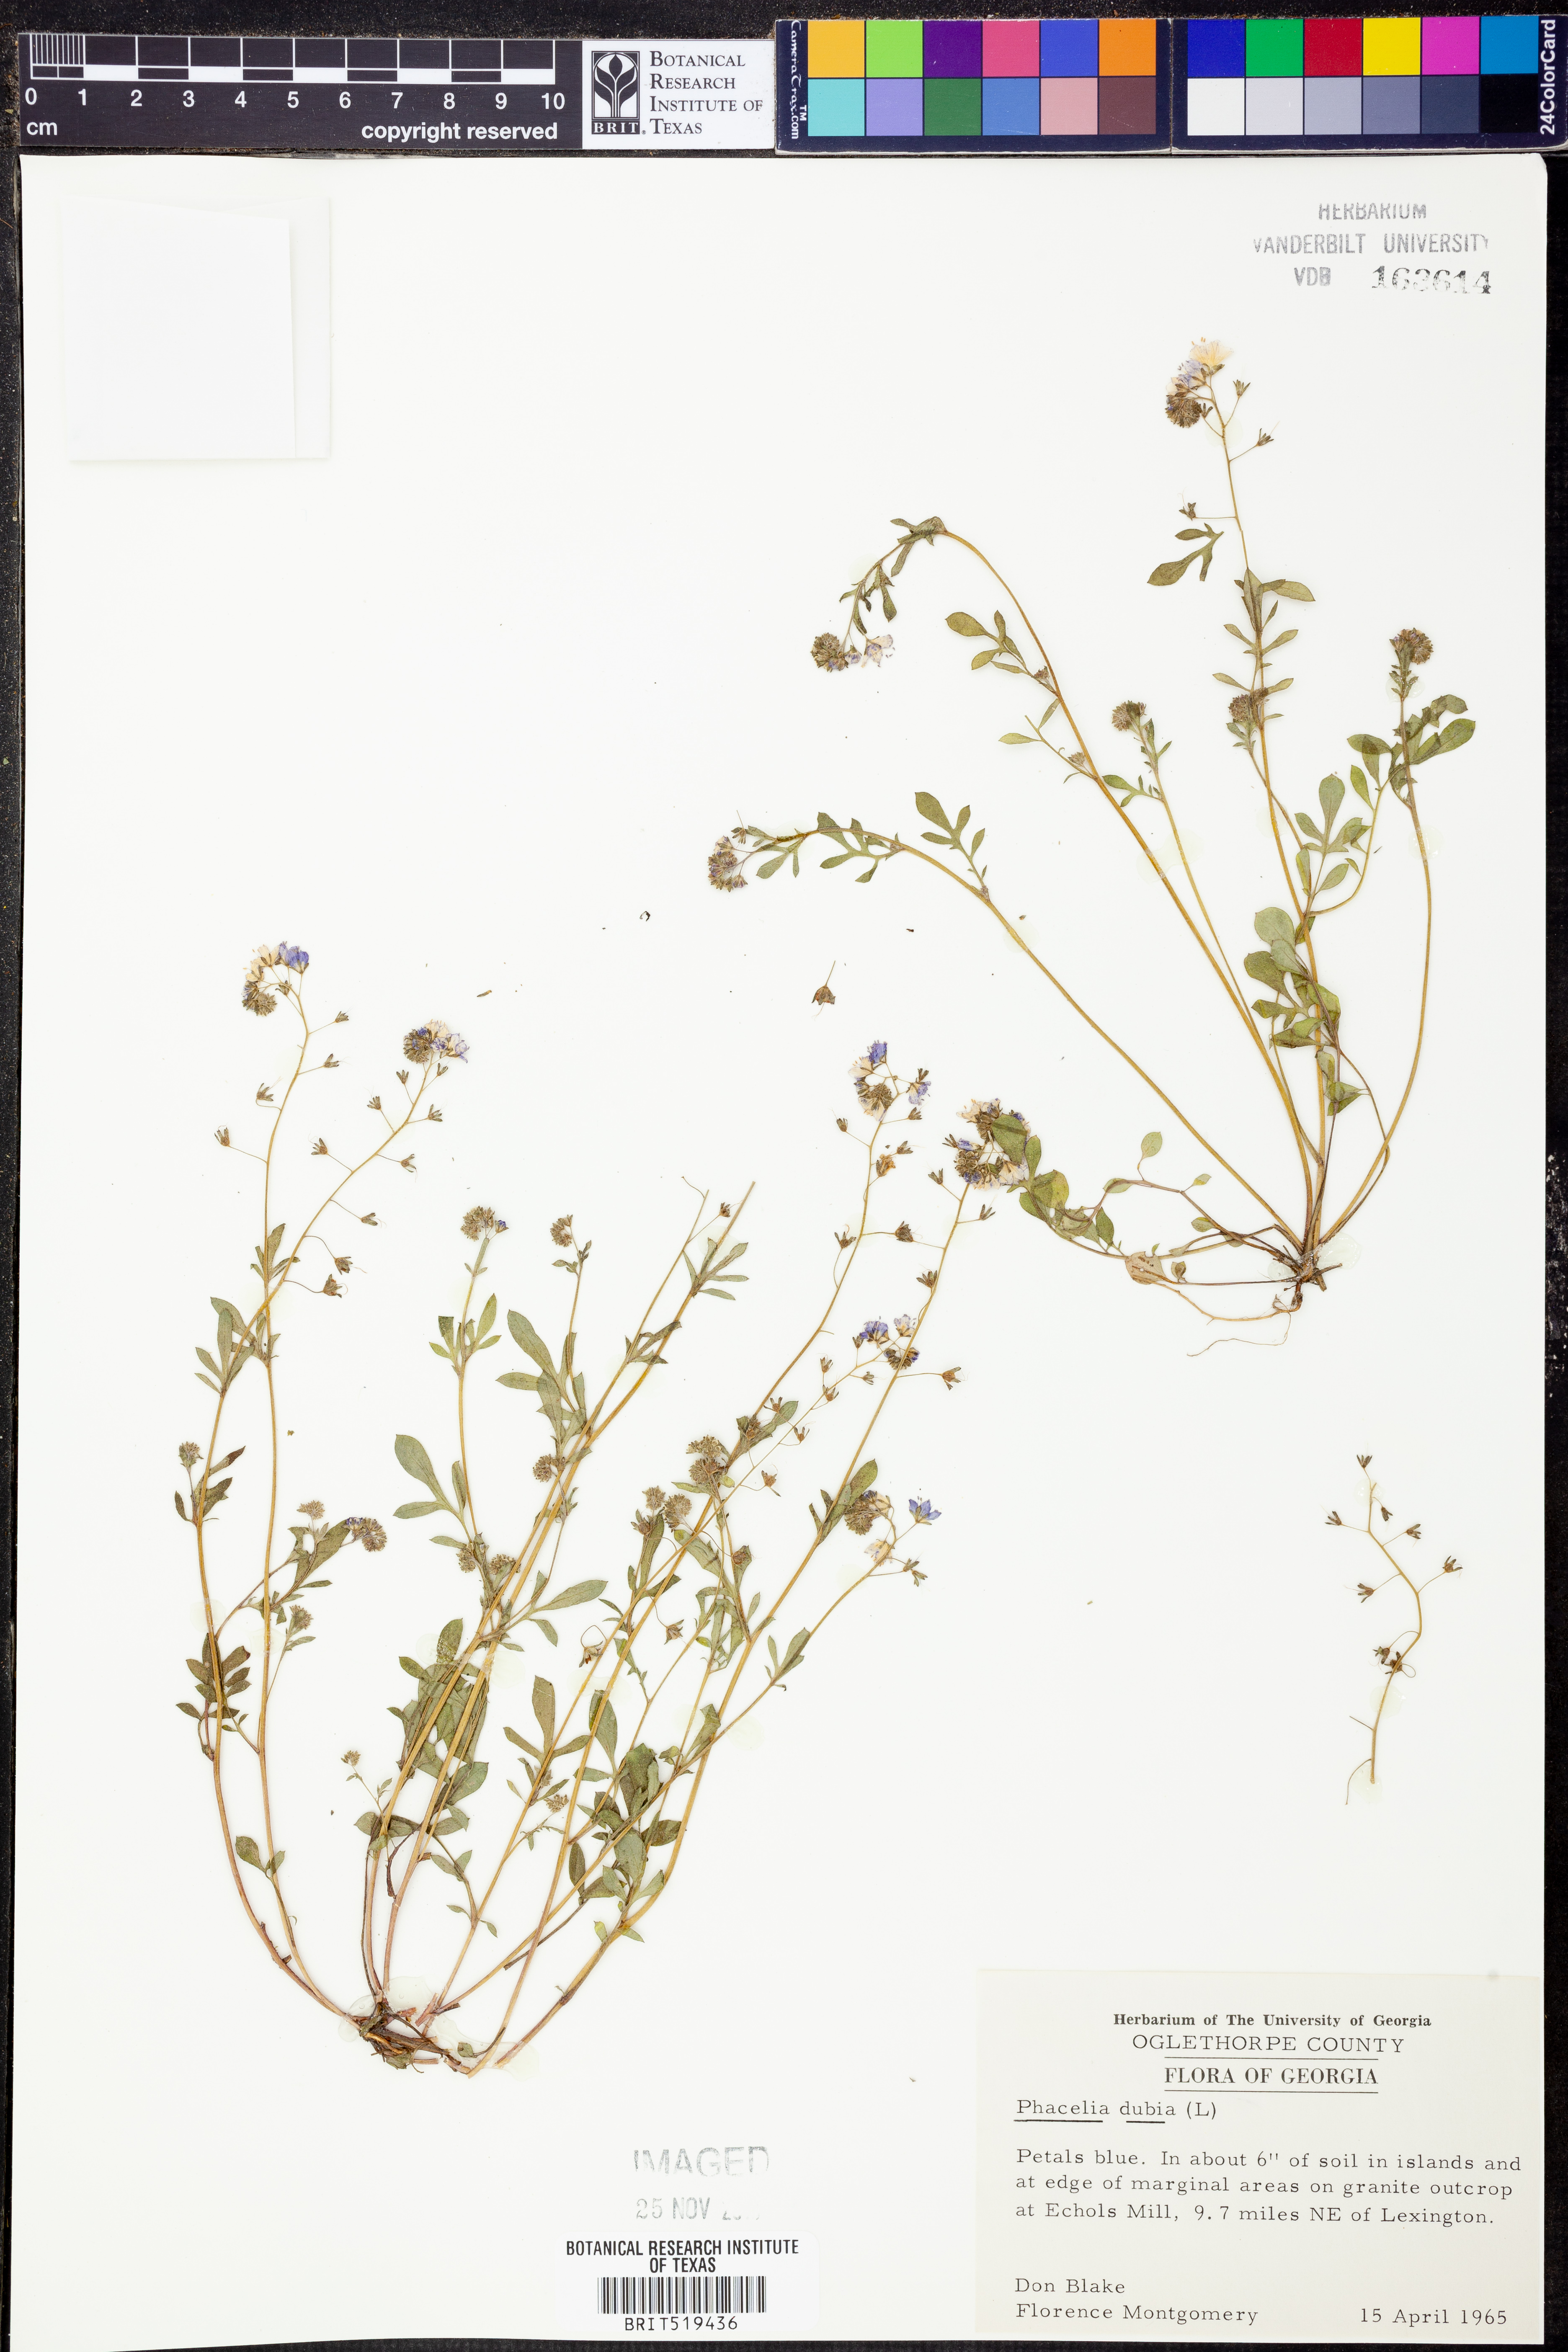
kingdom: Plantae
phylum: Tracheophyta
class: Magnoliopsida
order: Boraginales
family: Hydrophyllaceae
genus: Phacelia
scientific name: Phacelia dubia
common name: Appalachian phacelia
